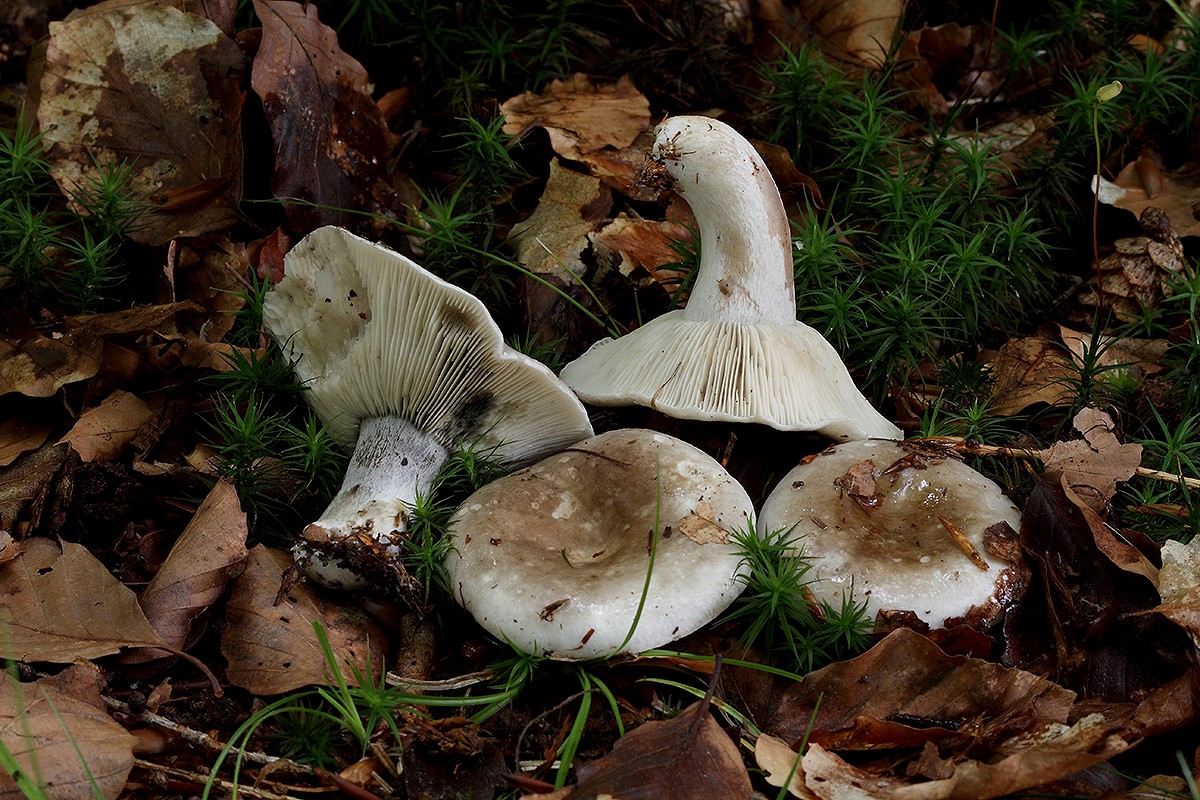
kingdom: Fungi
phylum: Basidiomycota
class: Agaricomycetes
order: Russulales
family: Russulaceae
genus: Russula
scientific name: Russula densifolia
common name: tætbladet skørhat
